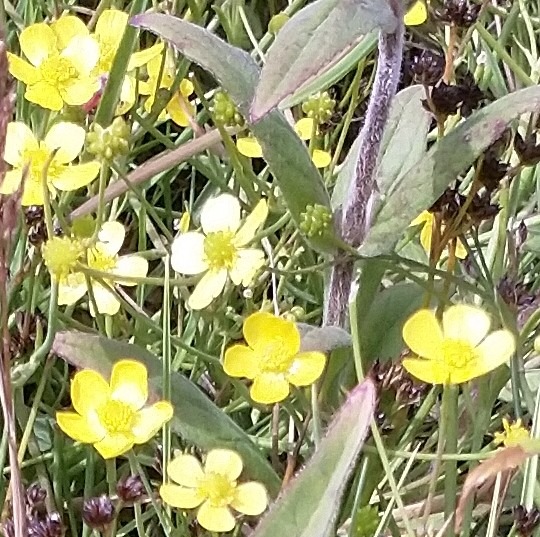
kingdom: Plantae
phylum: Tracheophyta
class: Magnoliopsida
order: Ranunculales
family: Ranunculaceae
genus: Ranunculus
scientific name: Ranunculus flammula
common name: Kær-ranunkel
